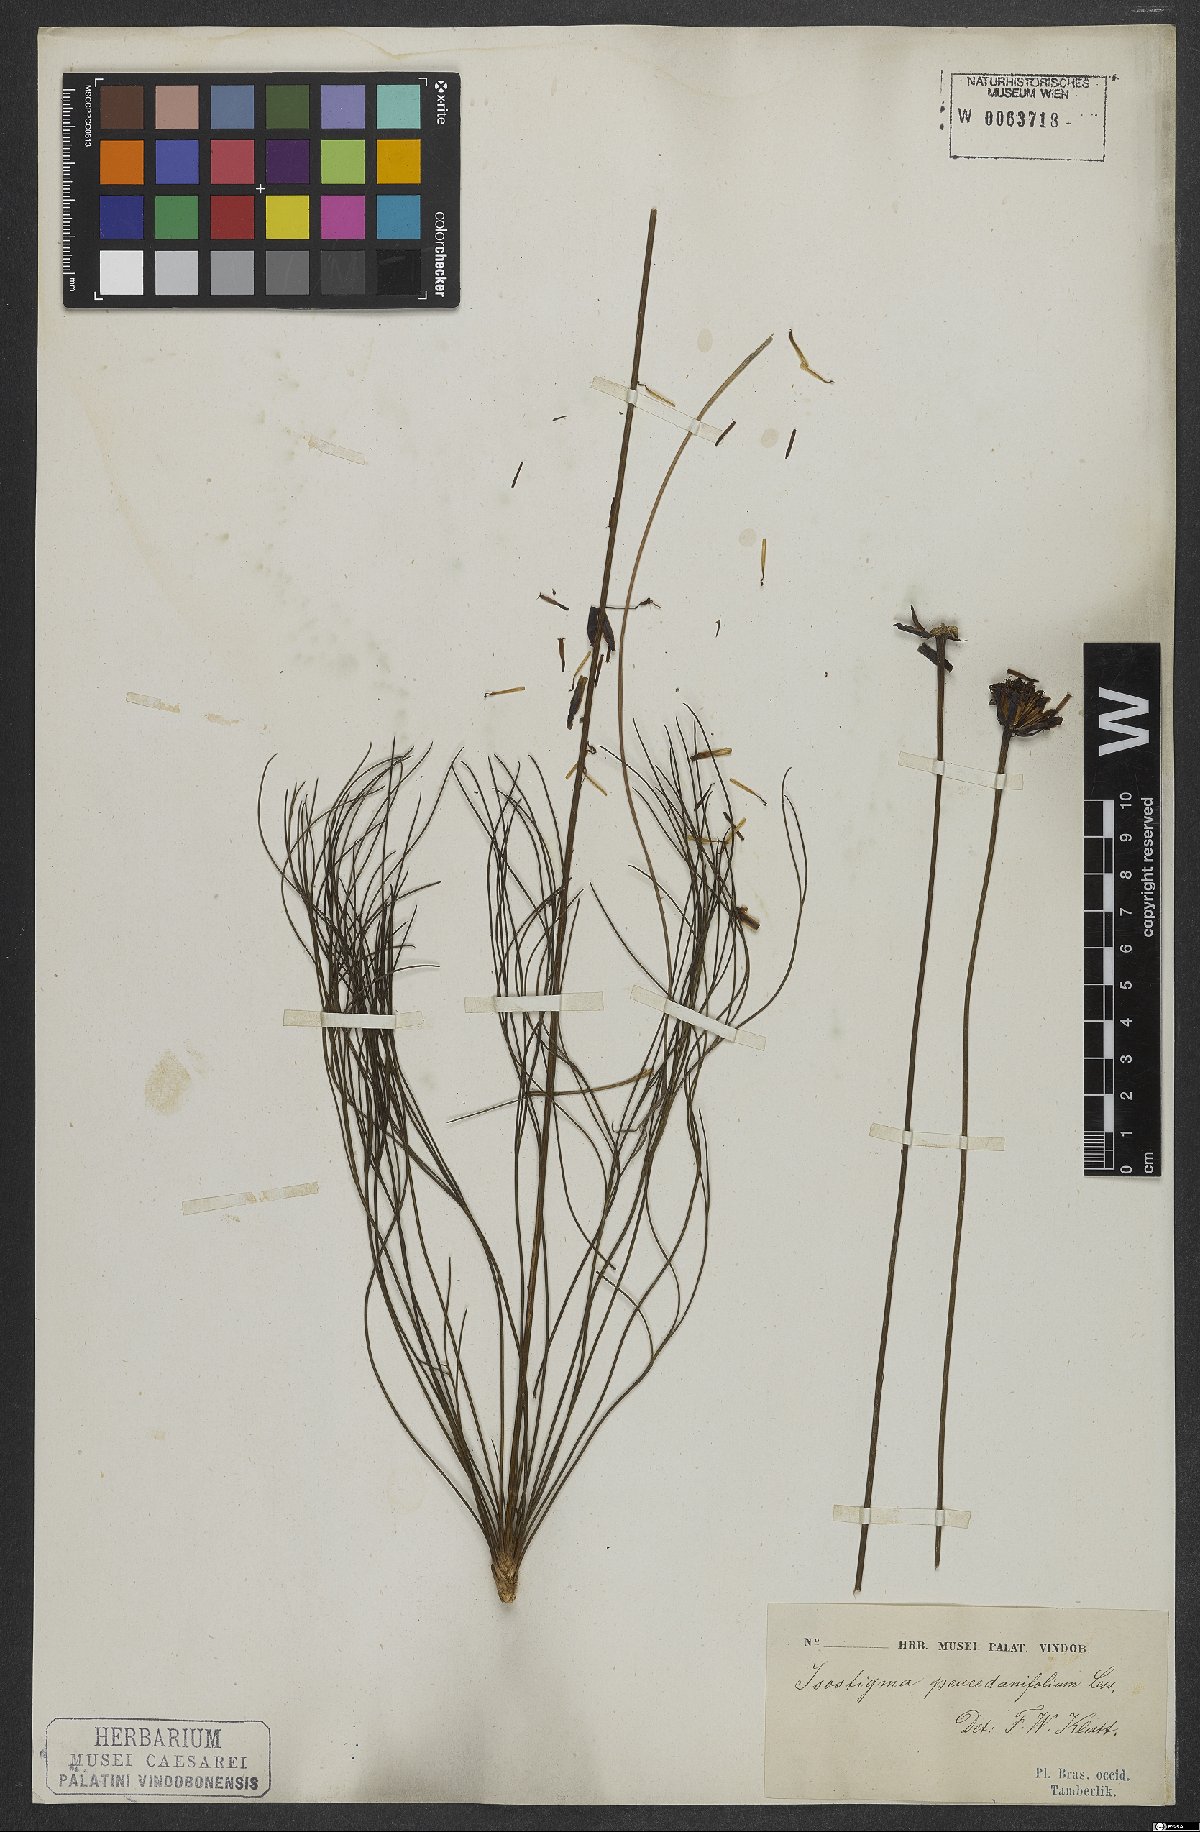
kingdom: Plantae
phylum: Tracheophyta
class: Magnoliopsida
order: Asterales
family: Asteraceae
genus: Isostigma
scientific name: Isostigma peucedanifolium
